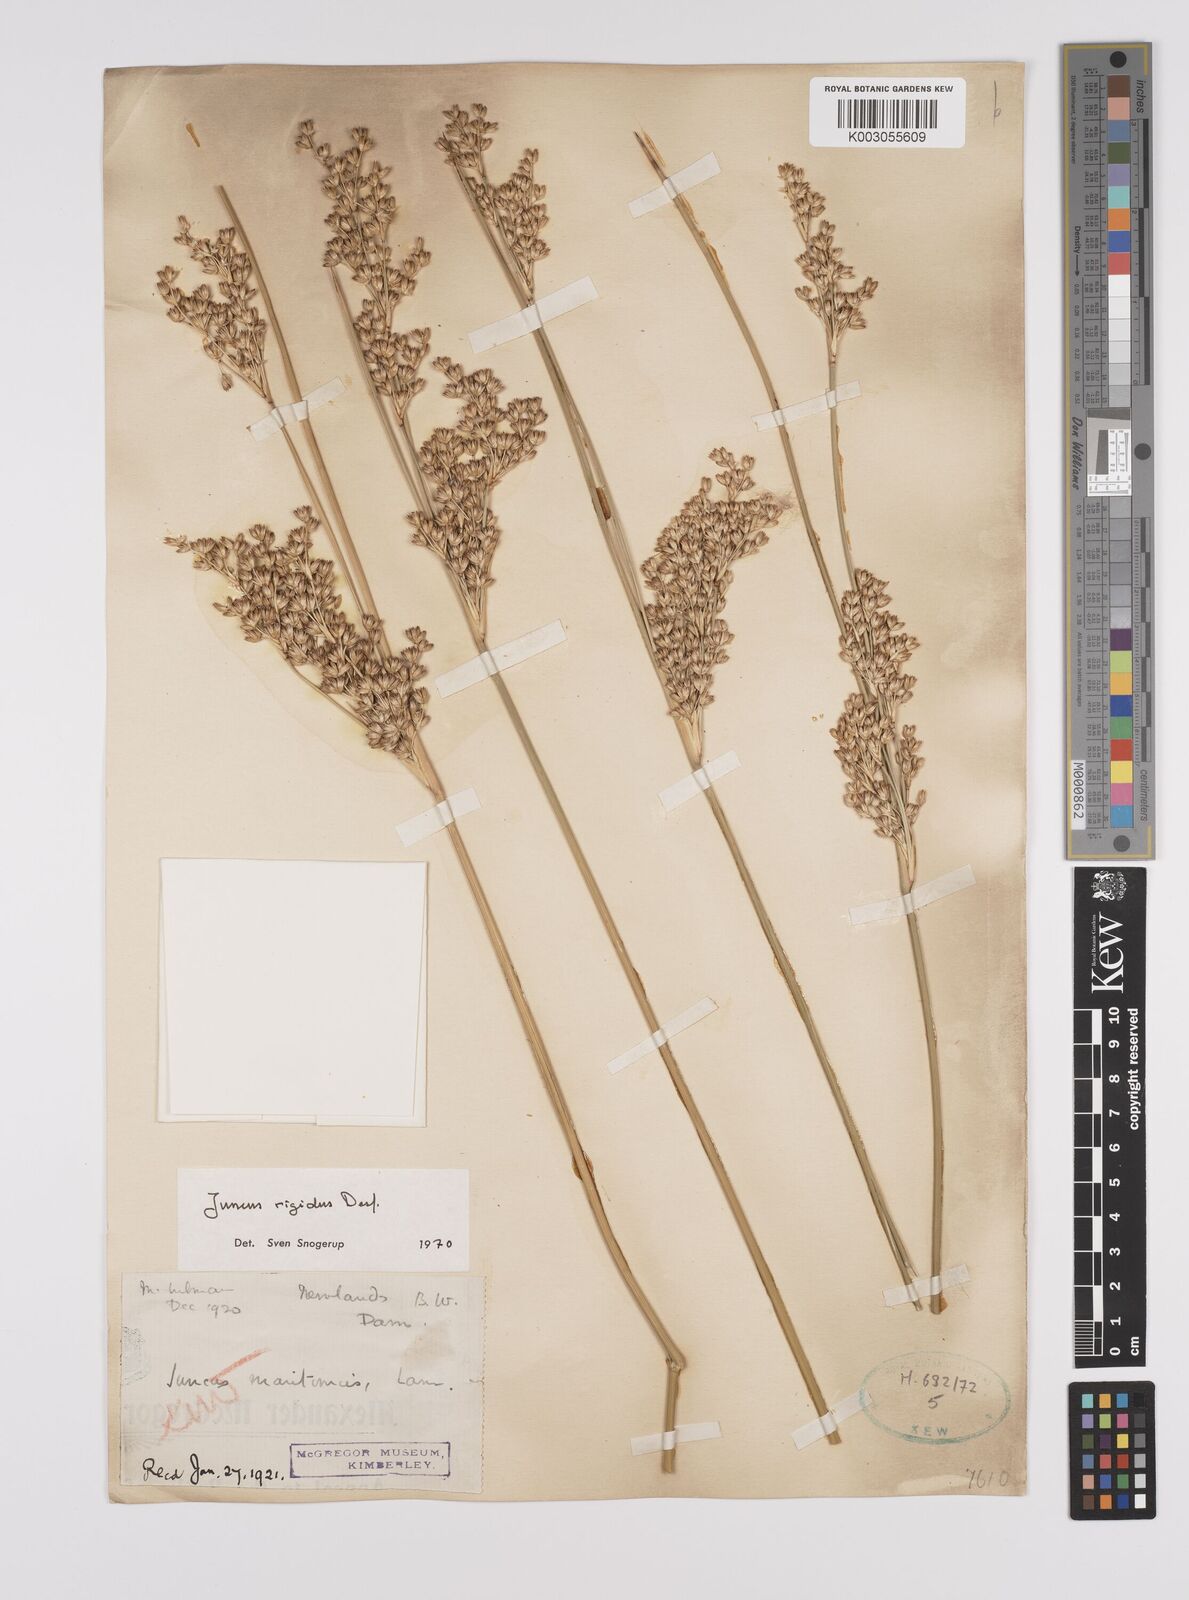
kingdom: Plantae
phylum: Tracheophyta
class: Liliopsida
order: Poales
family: Juncaceae
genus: Juncus
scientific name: Juncus rigidus
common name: Hard sea rush
